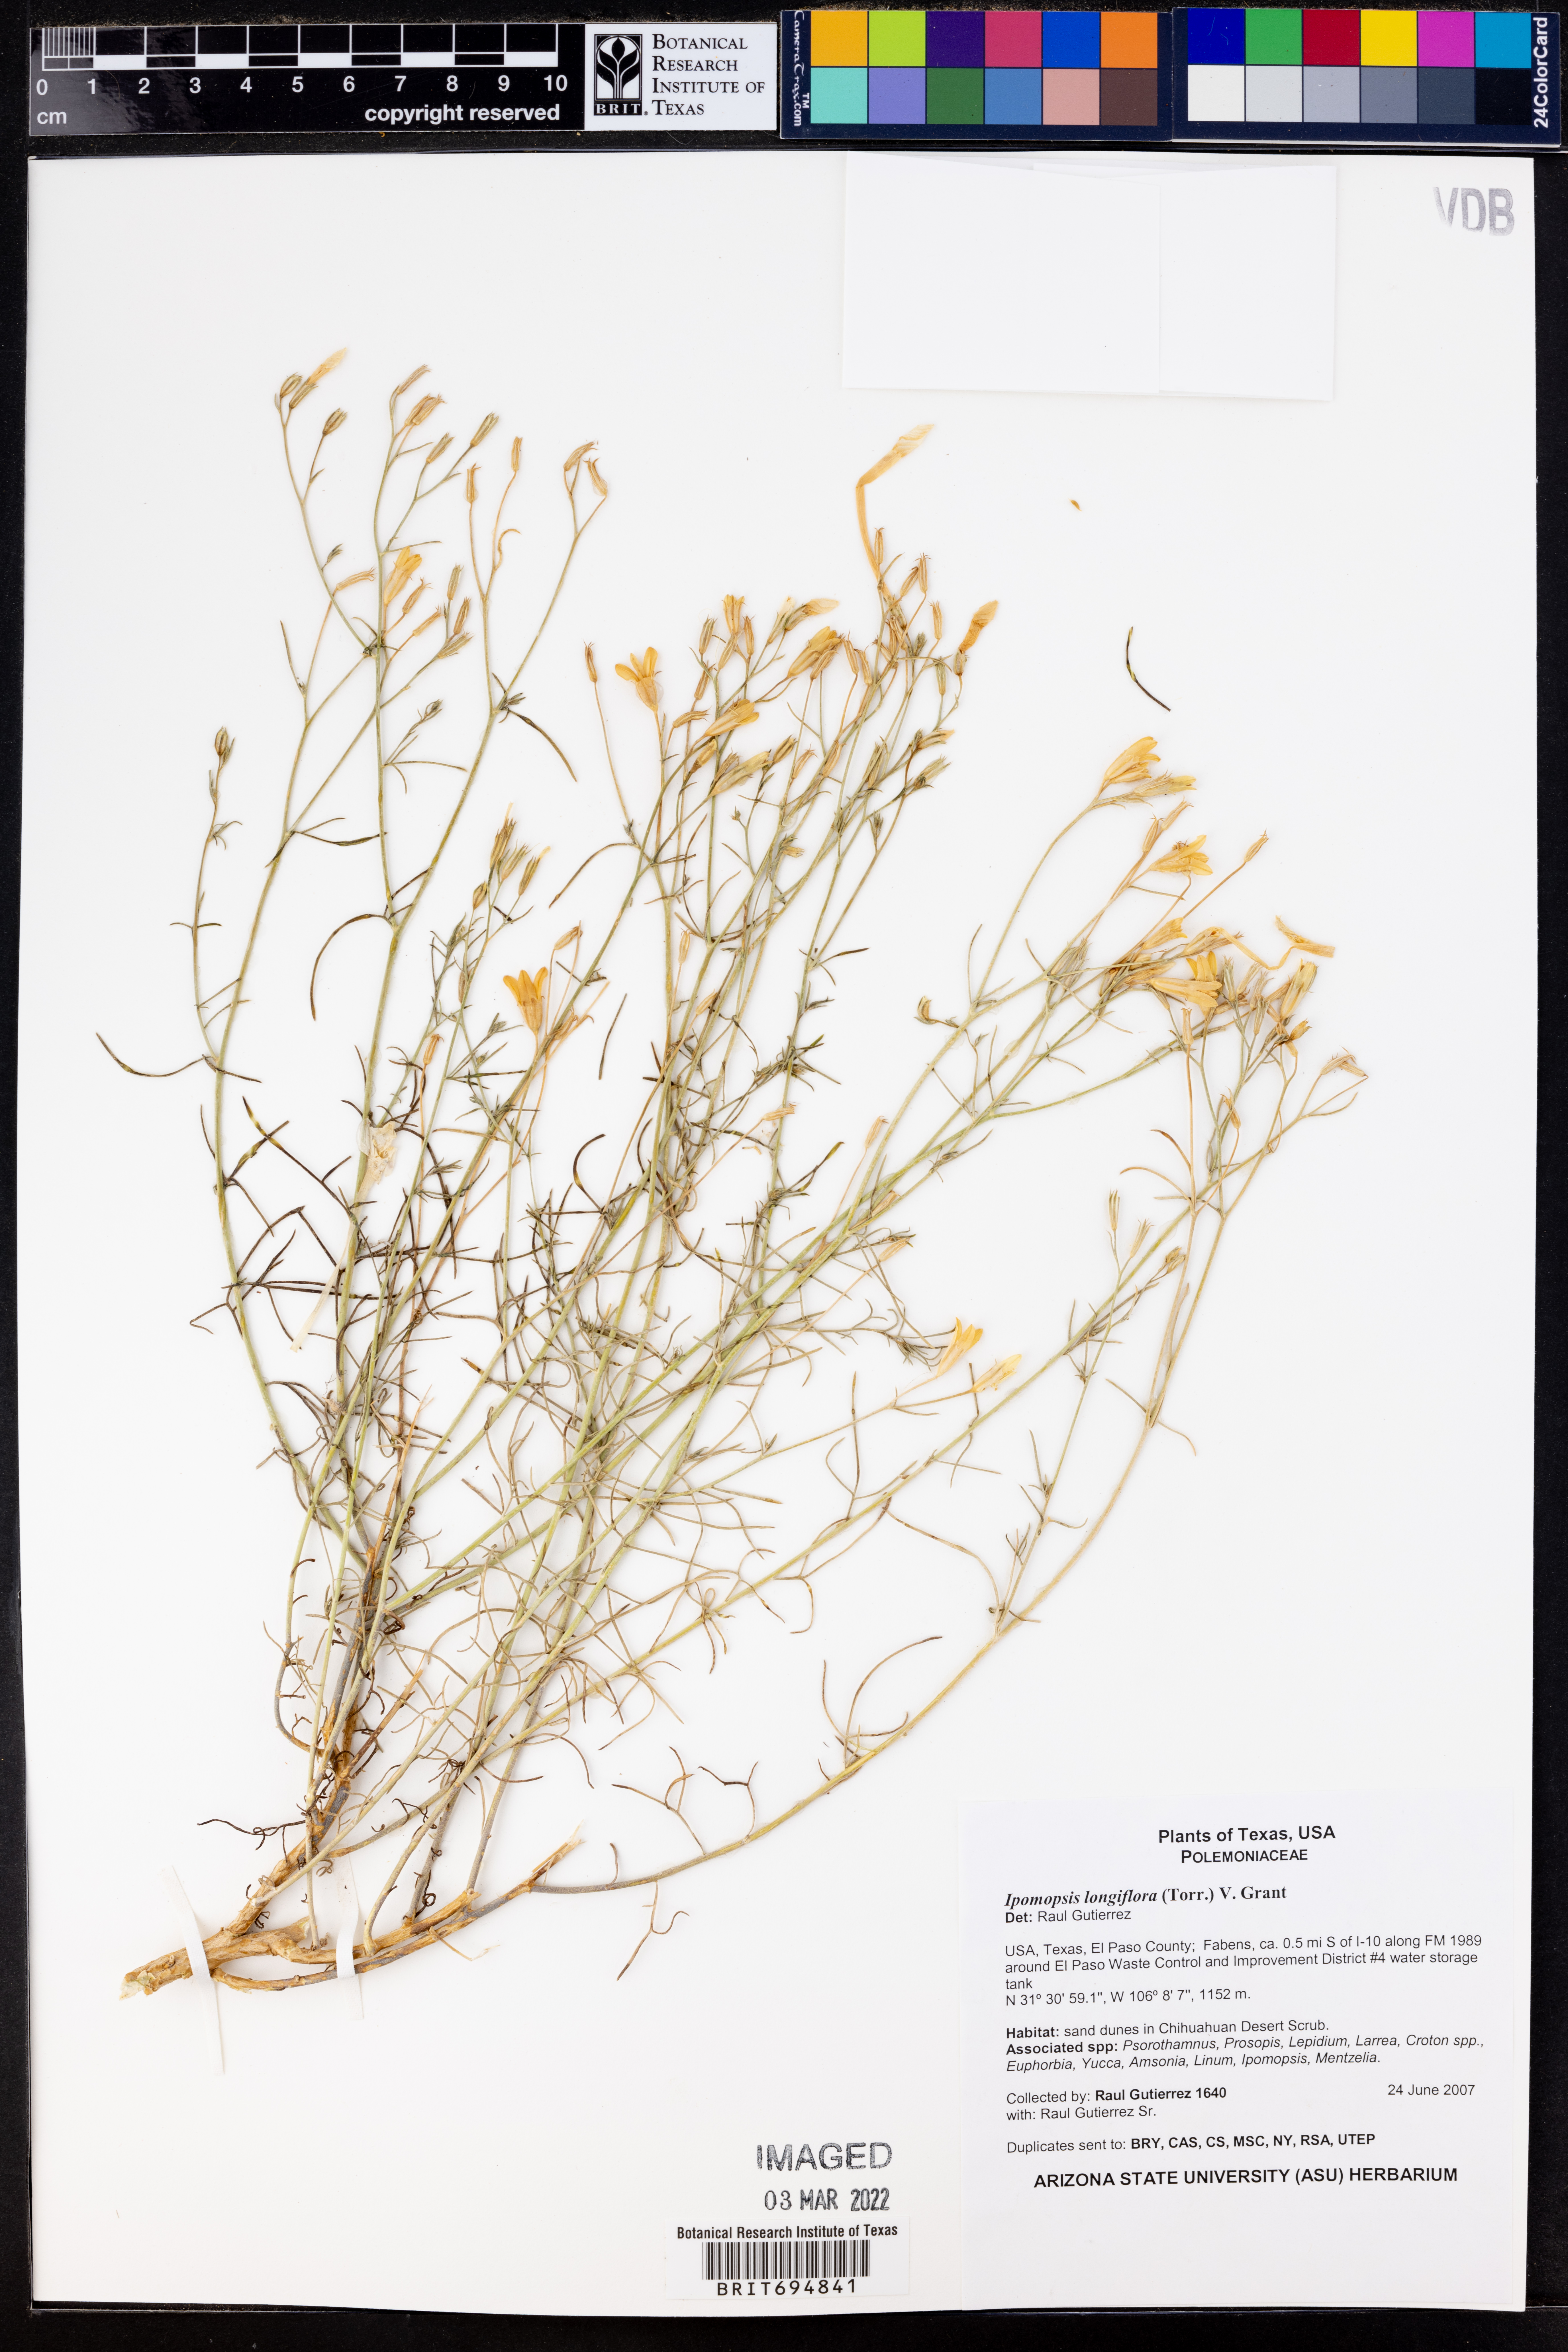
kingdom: Plantae
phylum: Tracheophyta
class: Magnoliopsida
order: Ericales
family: Polemoniaceae
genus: Ipomopsis
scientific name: Ipomopsis longiflora
